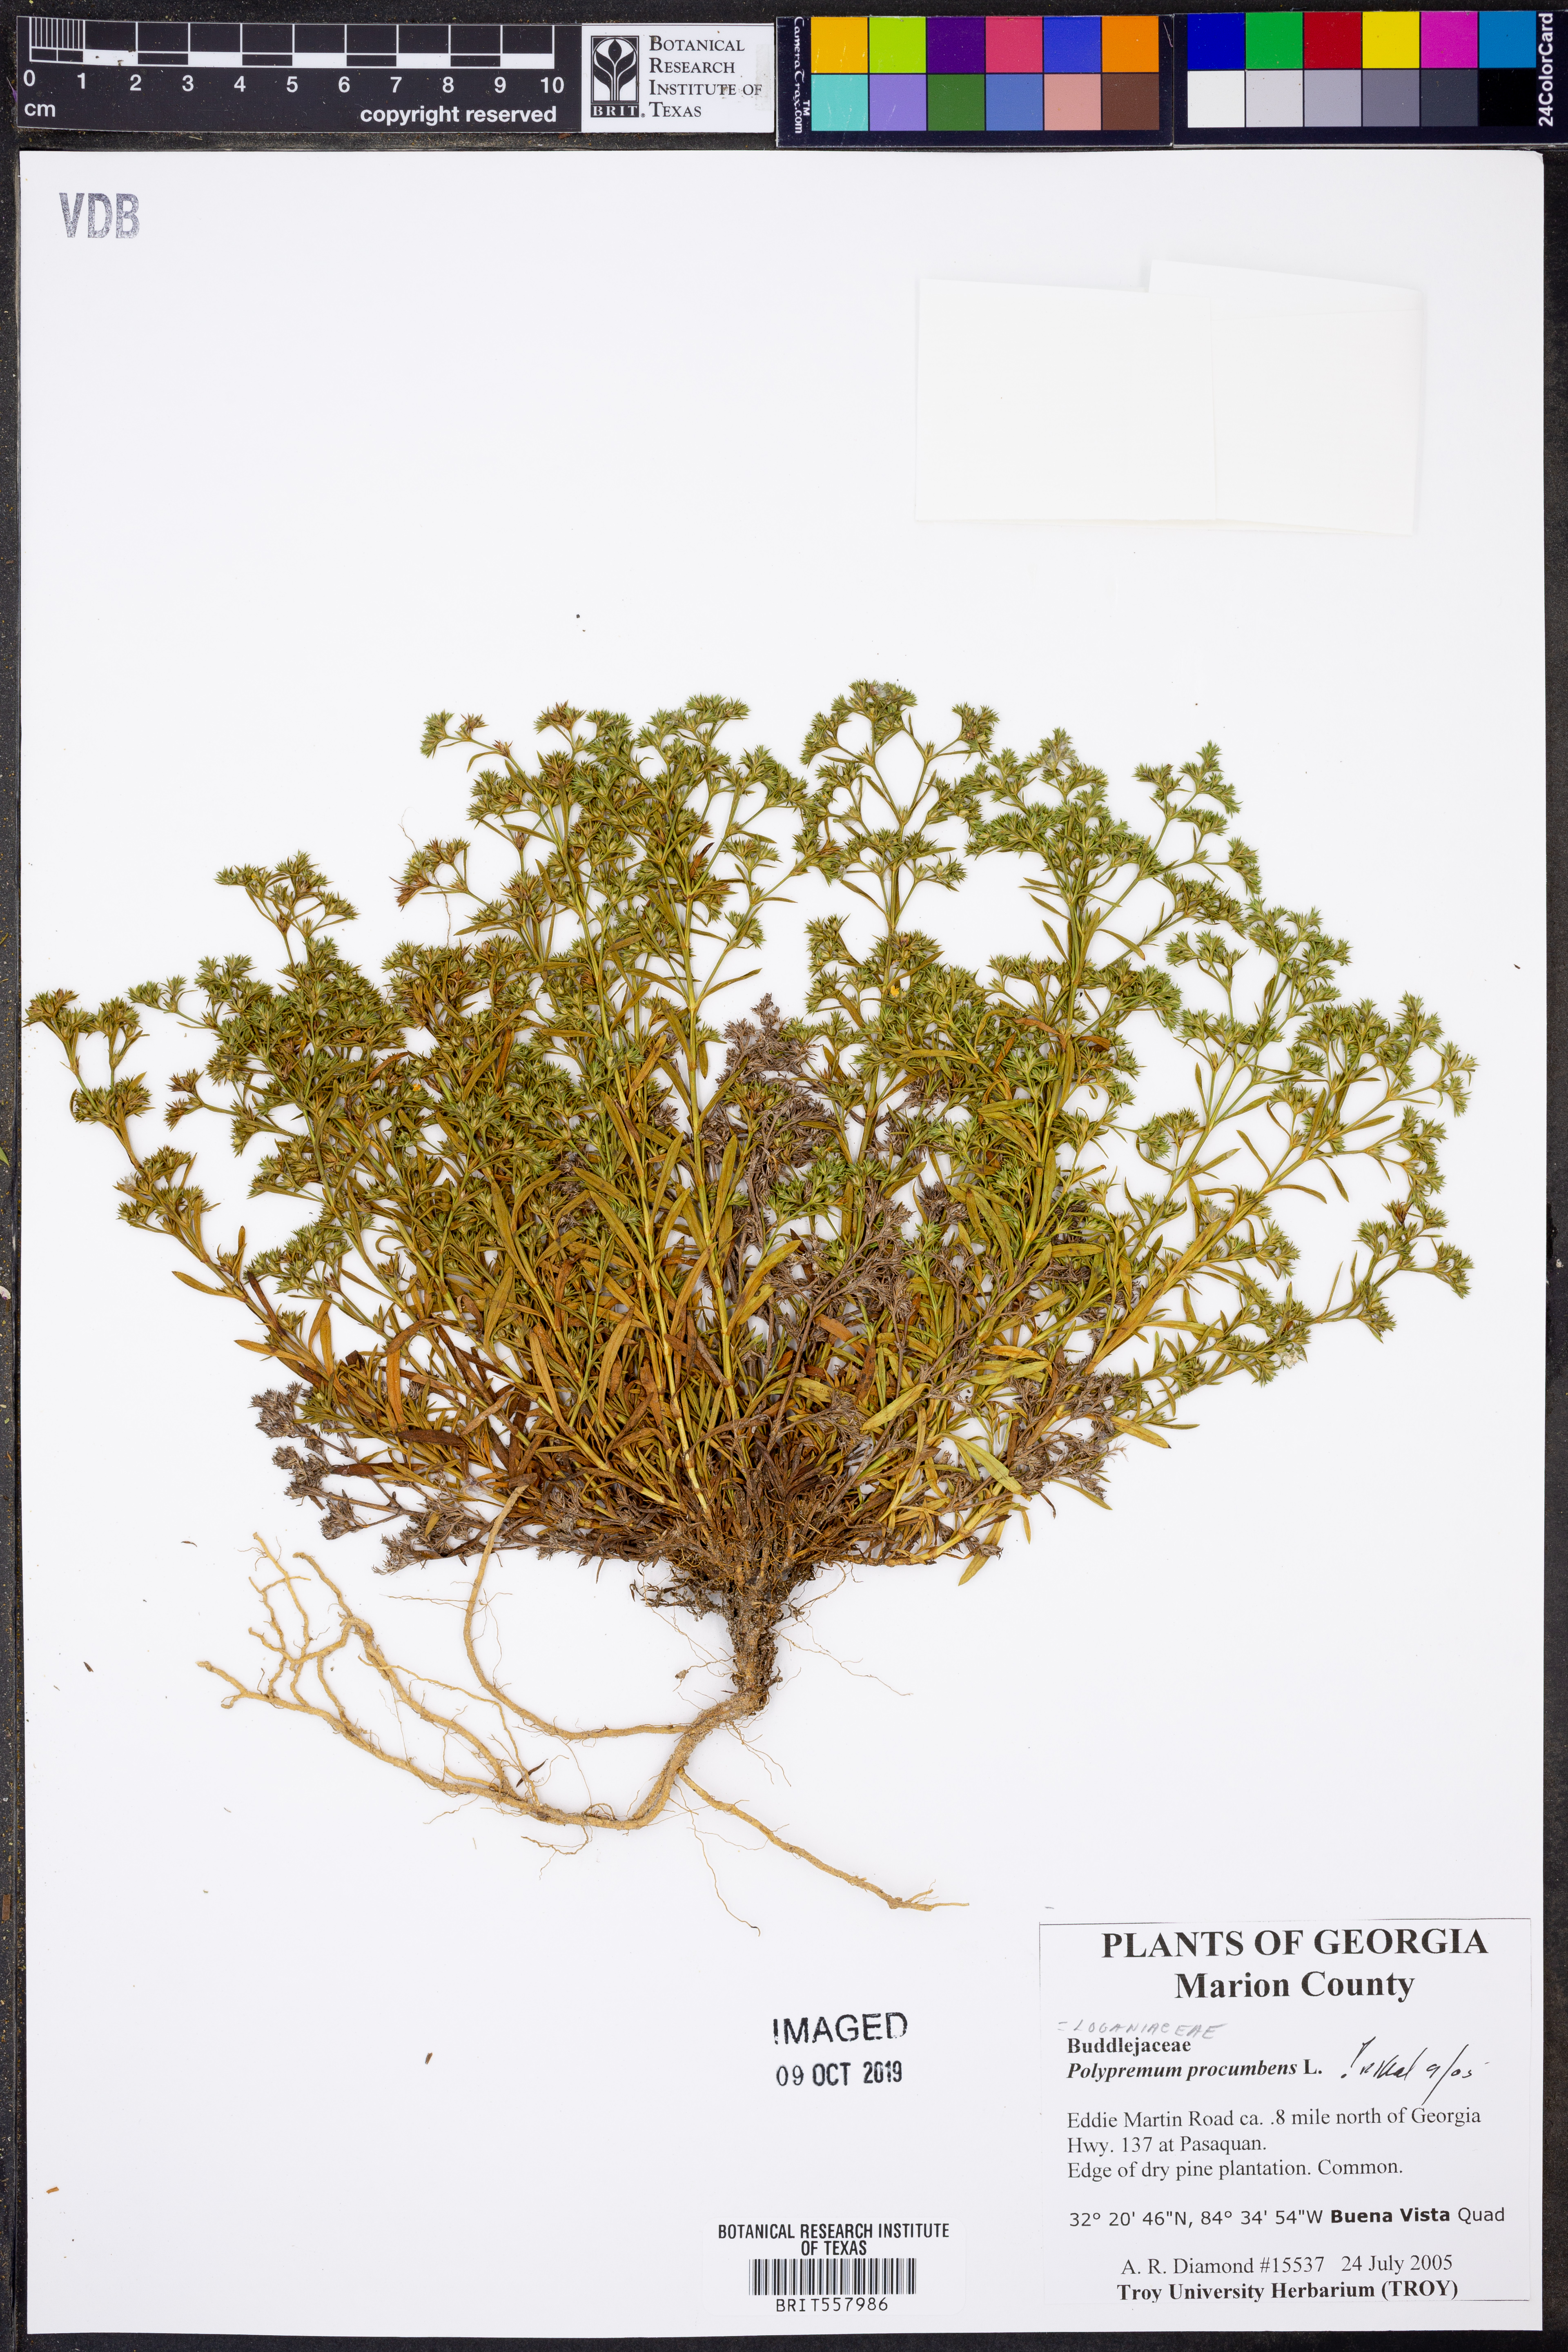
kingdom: Plantae
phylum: Tracheophyta
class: Magnoliopsida
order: Lamiales
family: Tetrachondraceae
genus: Polypremum
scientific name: Polypremum procumbens
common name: Juniper-leaf
